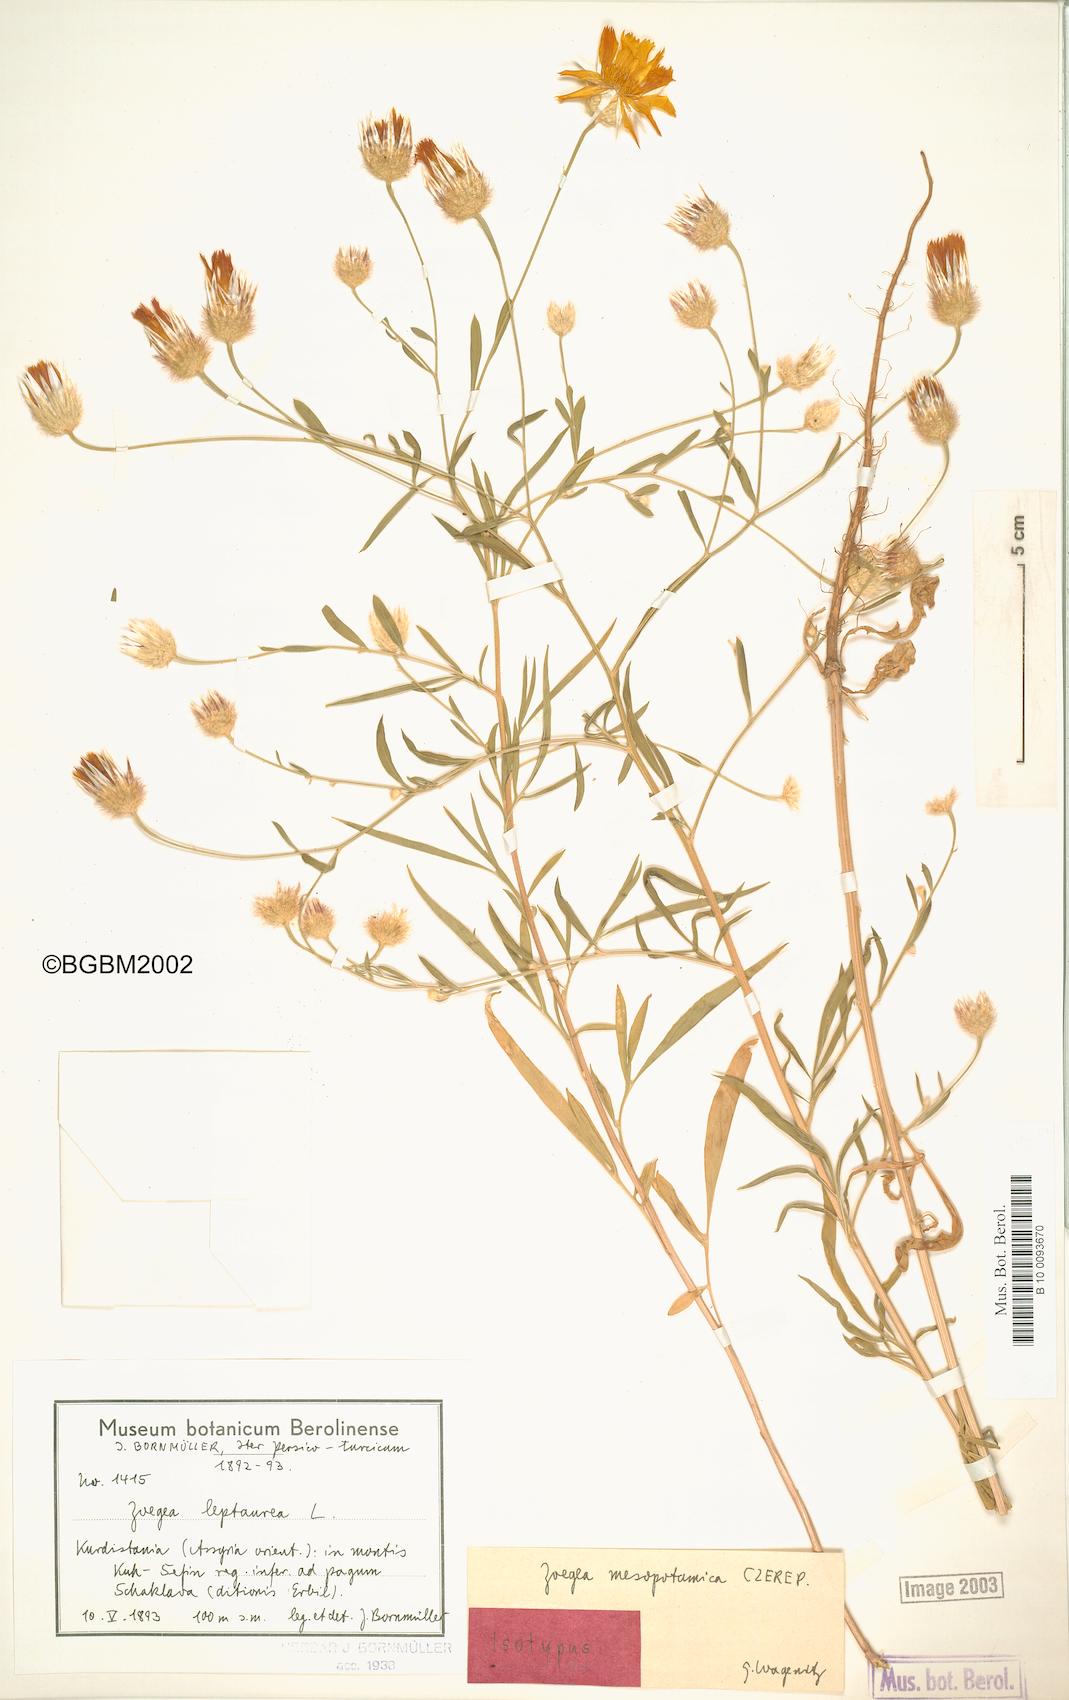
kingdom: Plantae
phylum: Tracheophyta
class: Magnoliopsida
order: Asterales
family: Asteraceae
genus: Zoegea
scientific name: Zoegea leptaurea
